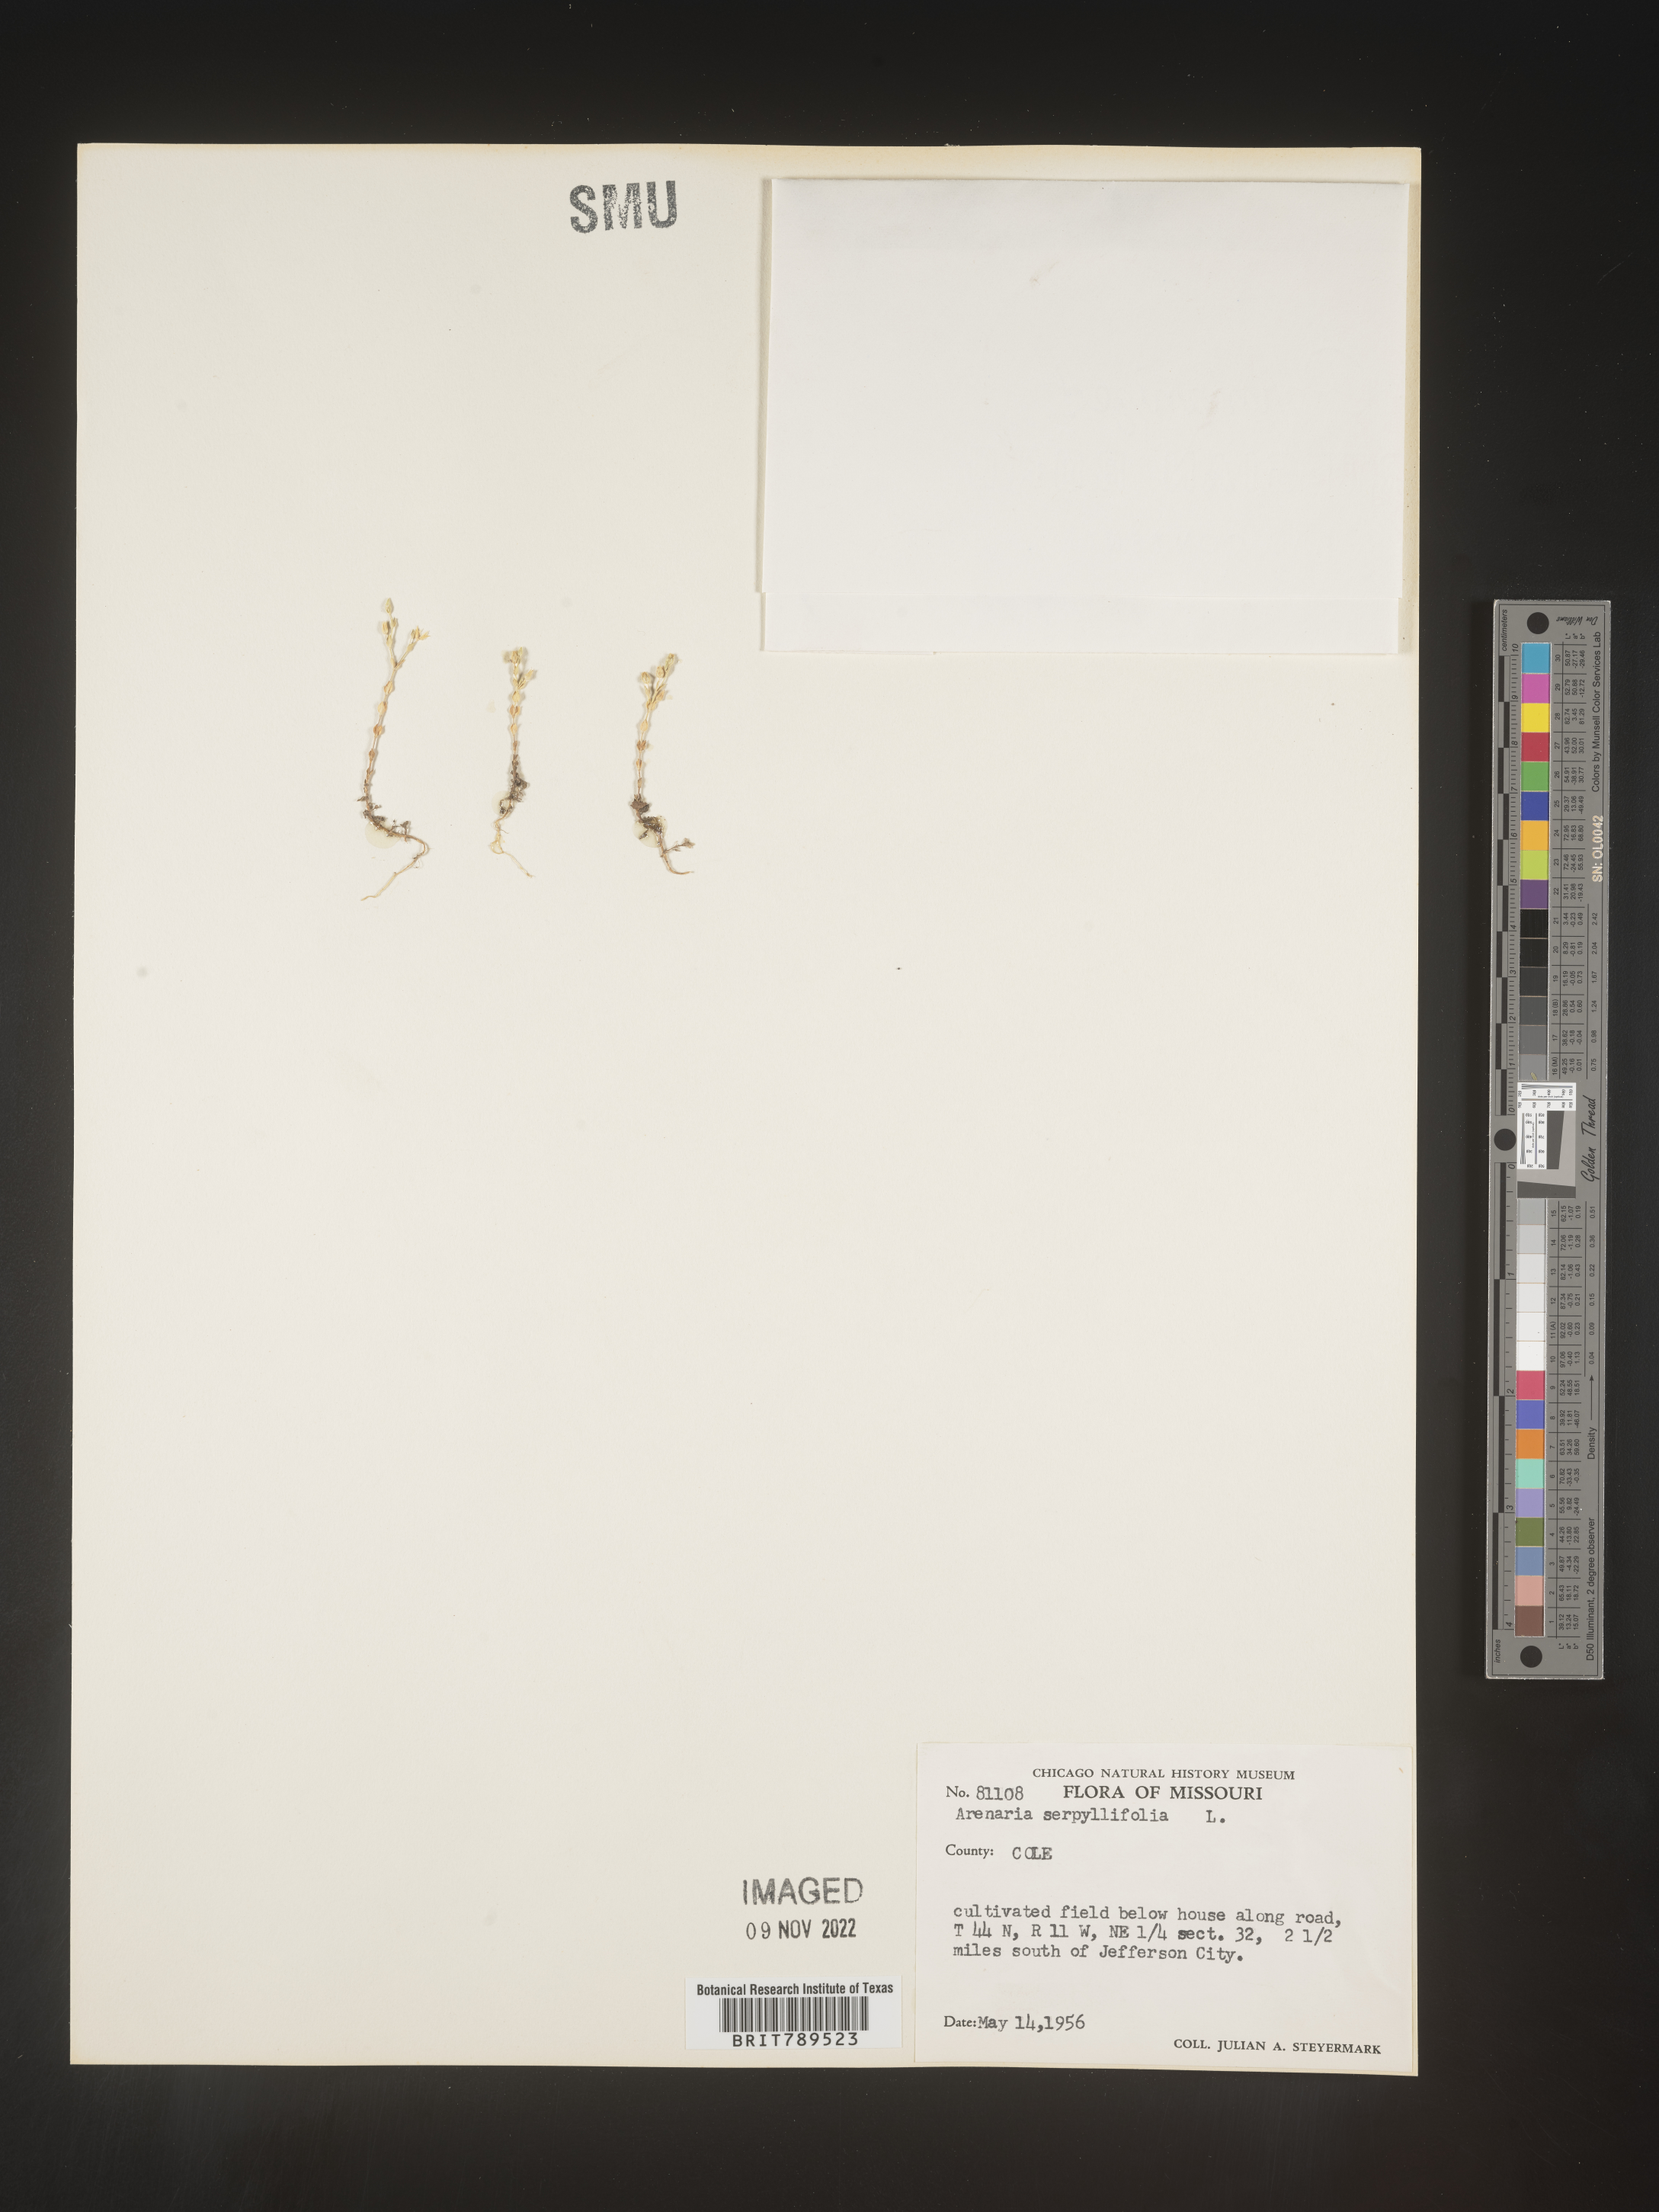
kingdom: Plantae
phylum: Tracheophyta
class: Magnoliopsida
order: Caryophyllales
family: Caryophyllaceae
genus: Arenaria
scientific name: Arenaria serpyllifolia
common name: Thyme-leaved sandwort
